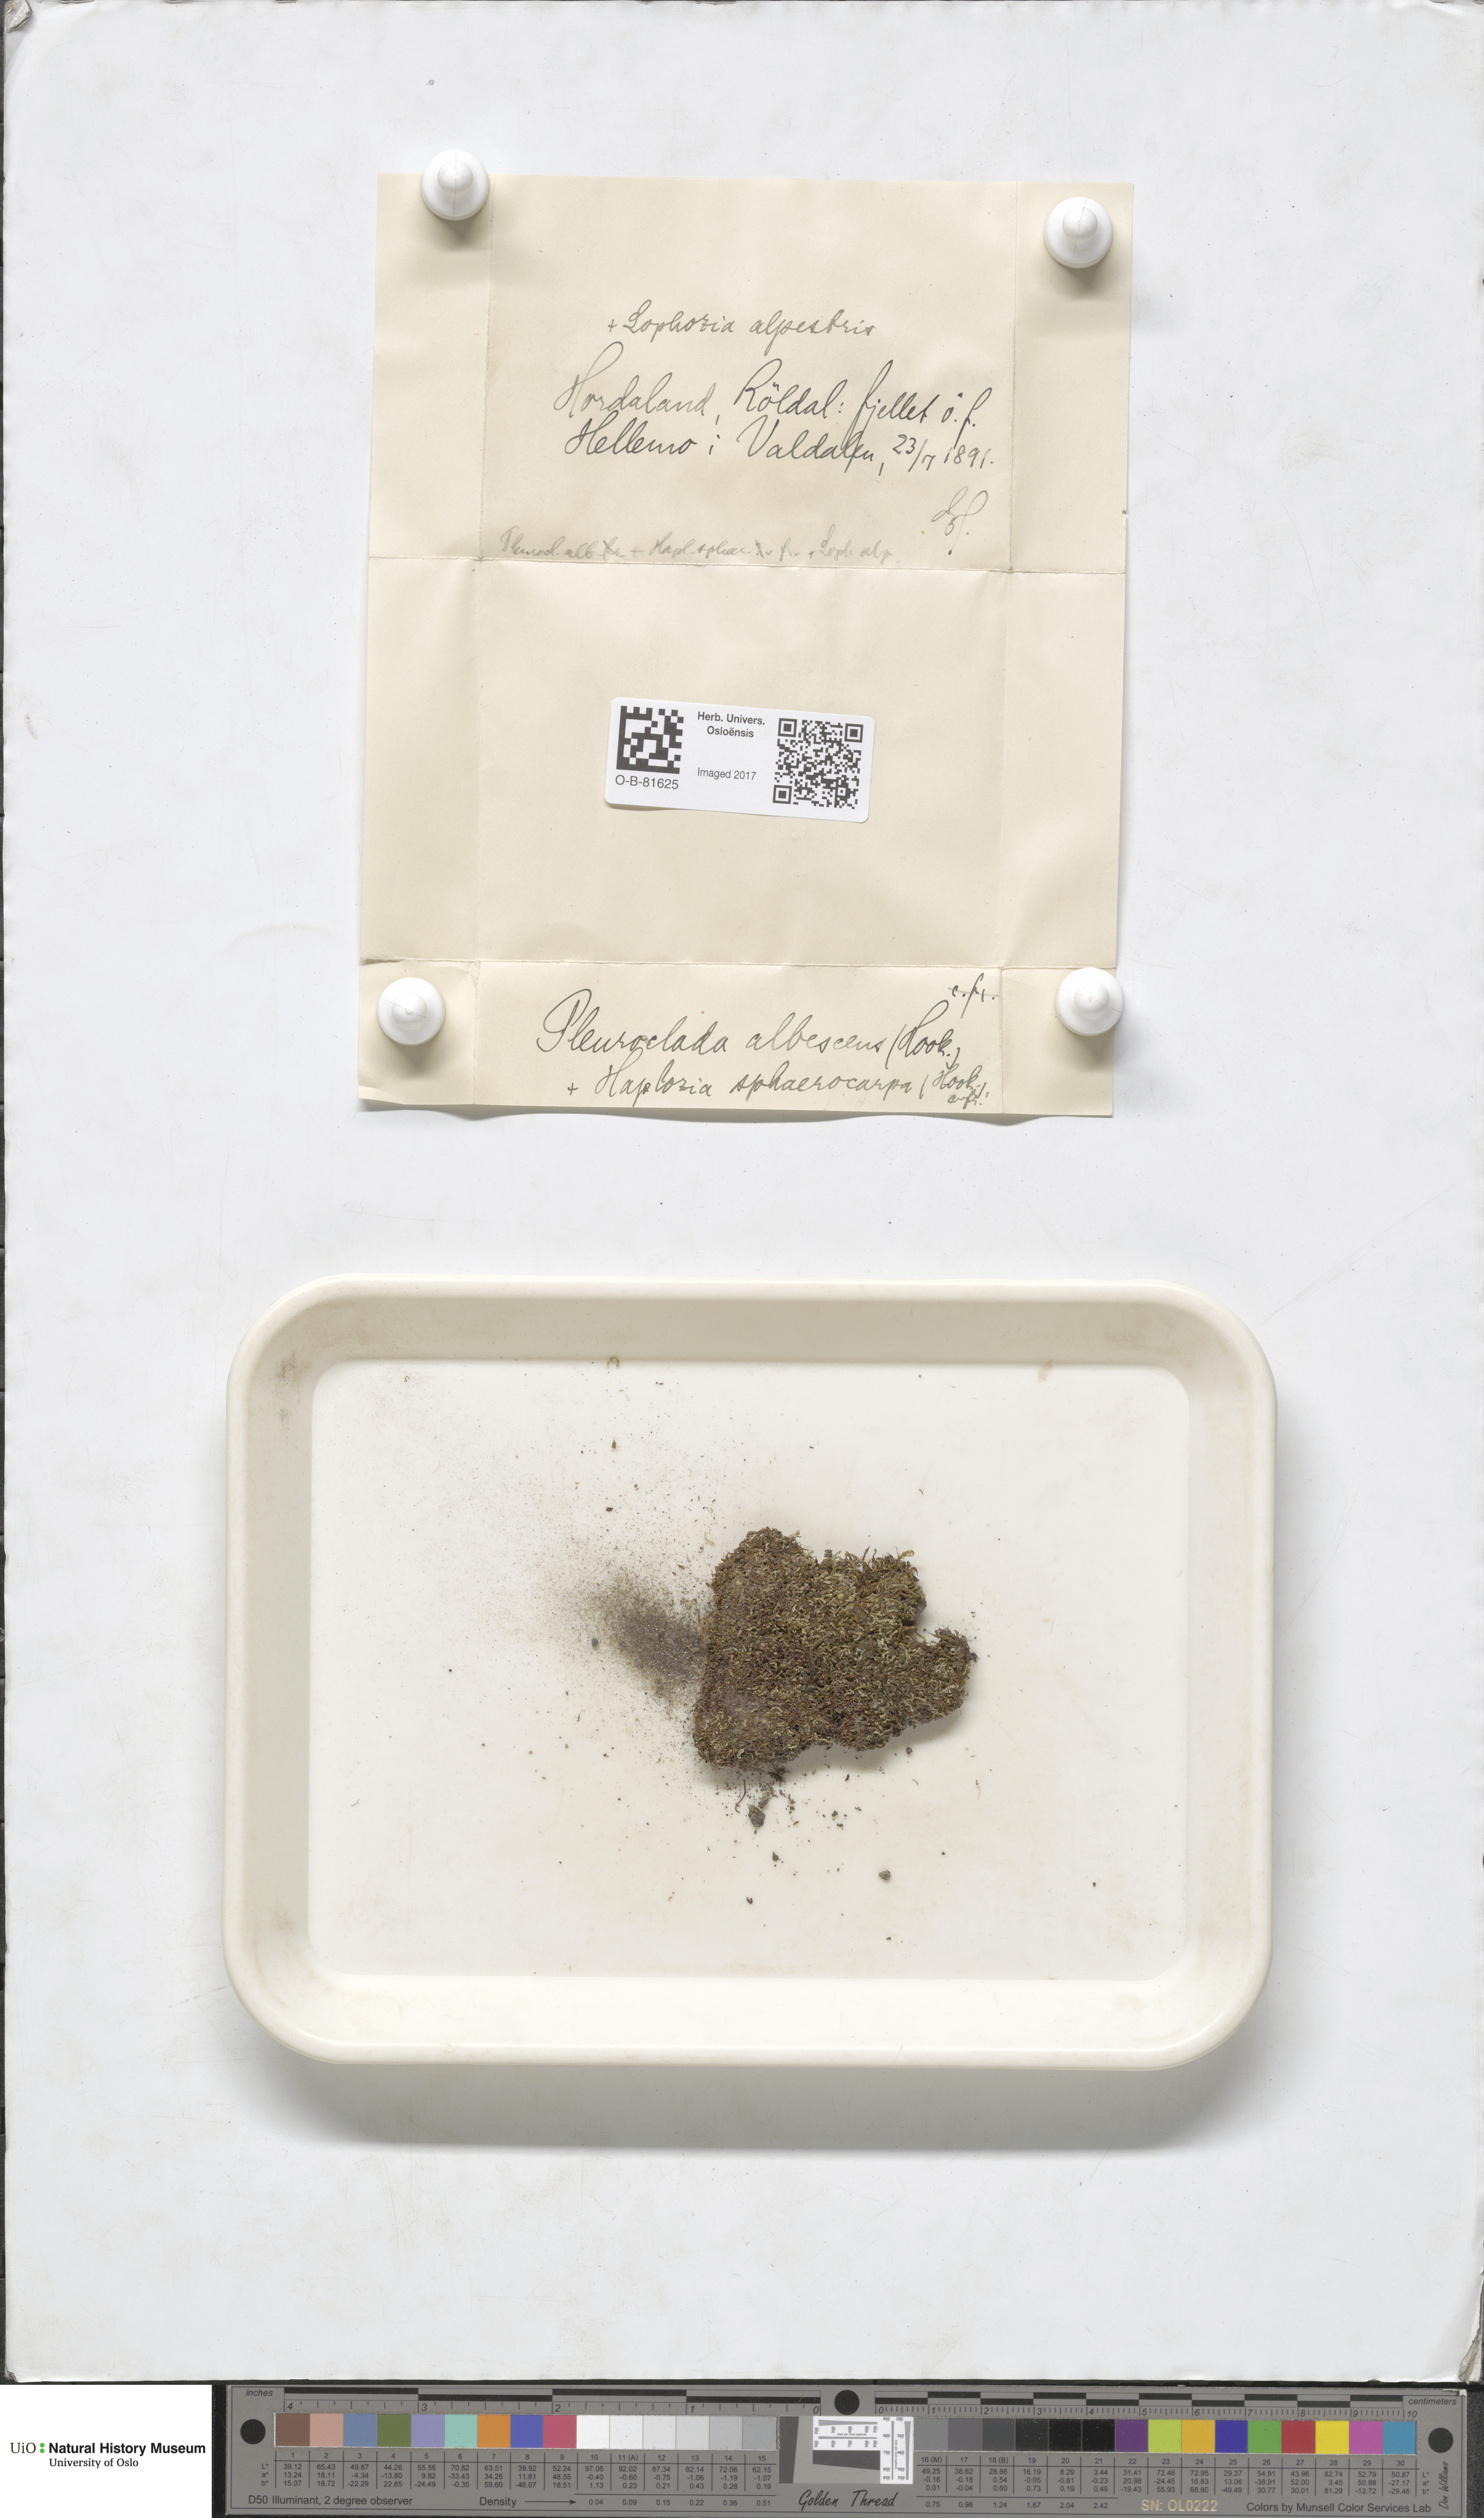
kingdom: Plantae
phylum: Marchantiophyta
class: Jungermanniopsida
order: Jungermanniales
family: Cephaloziaceae
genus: Fuscocephaloziopsis
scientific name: Fuscocephaloziopsis albescens
